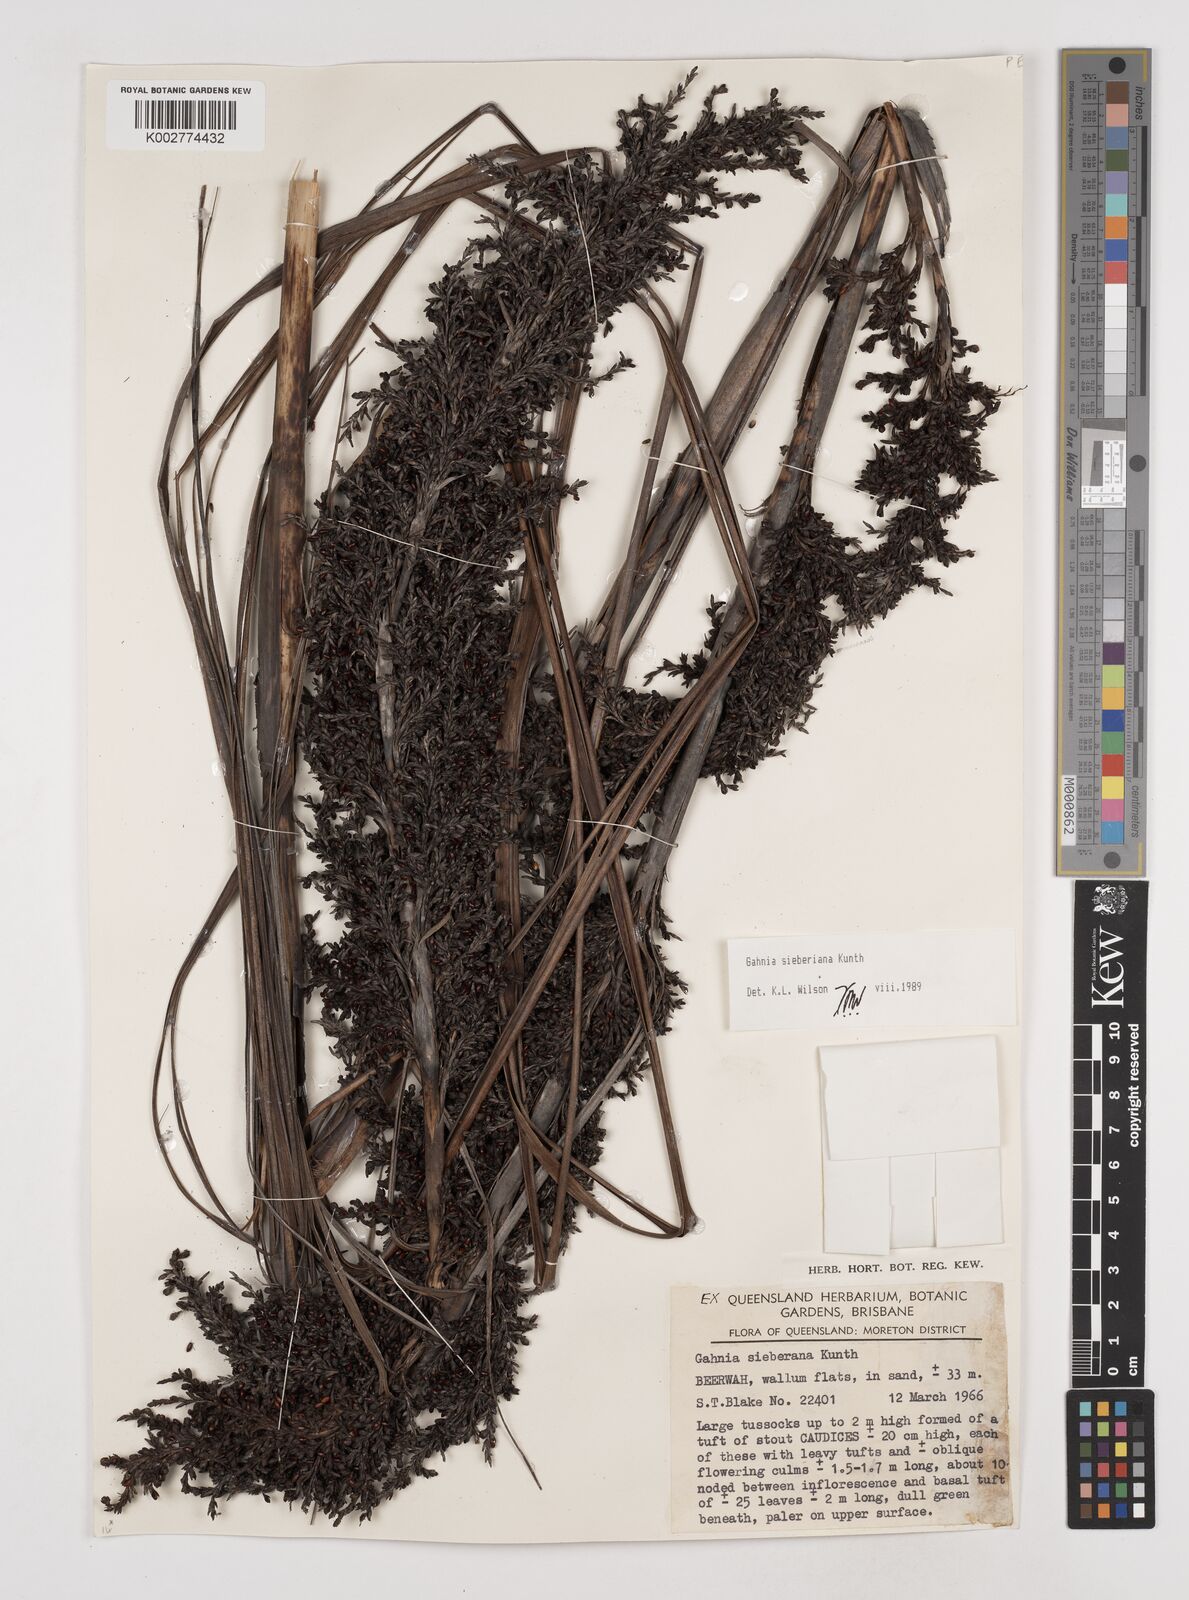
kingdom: Plantae
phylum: Tracheophyta
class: Liliopsida
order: Poales
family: Cyperaceae
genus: Gahnia
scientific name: Gahnia sieberiana
